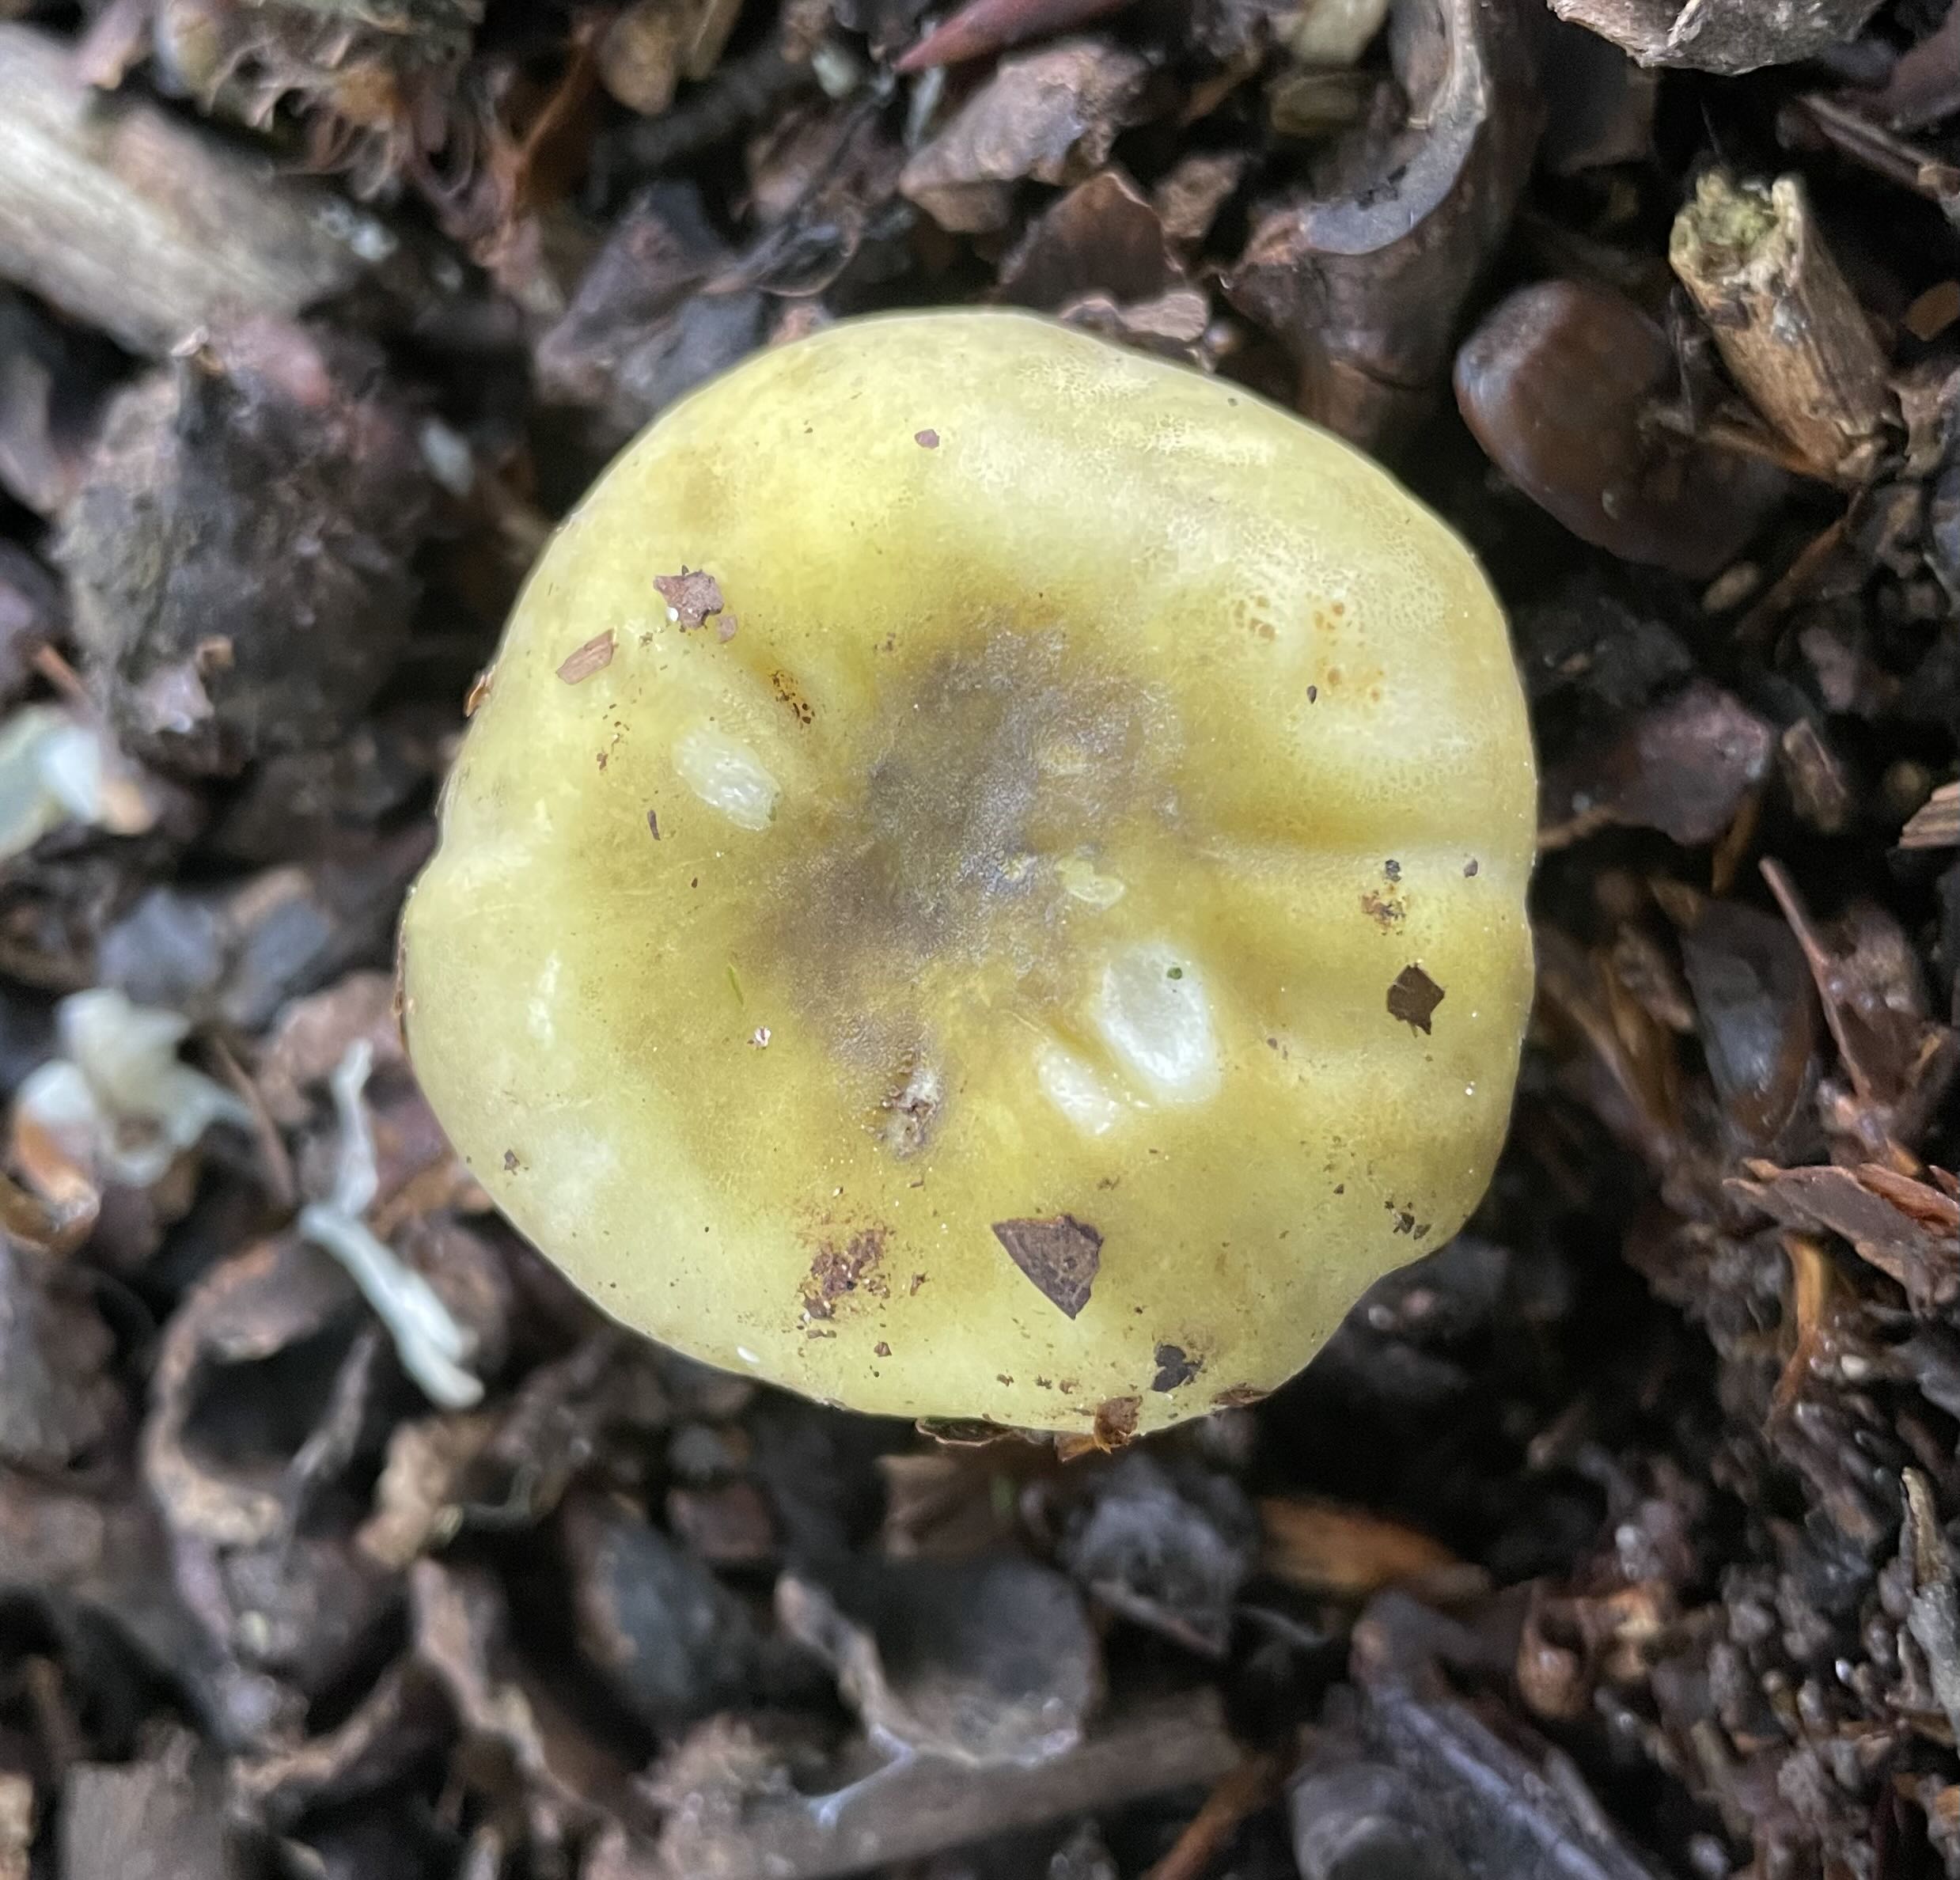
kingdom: Fungi
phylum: Basidiomycota
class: Agaricomycetes
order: Russulales
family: Russulaceae
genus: Russula
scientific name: Russula violeipes
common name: ferskengul skørhat
